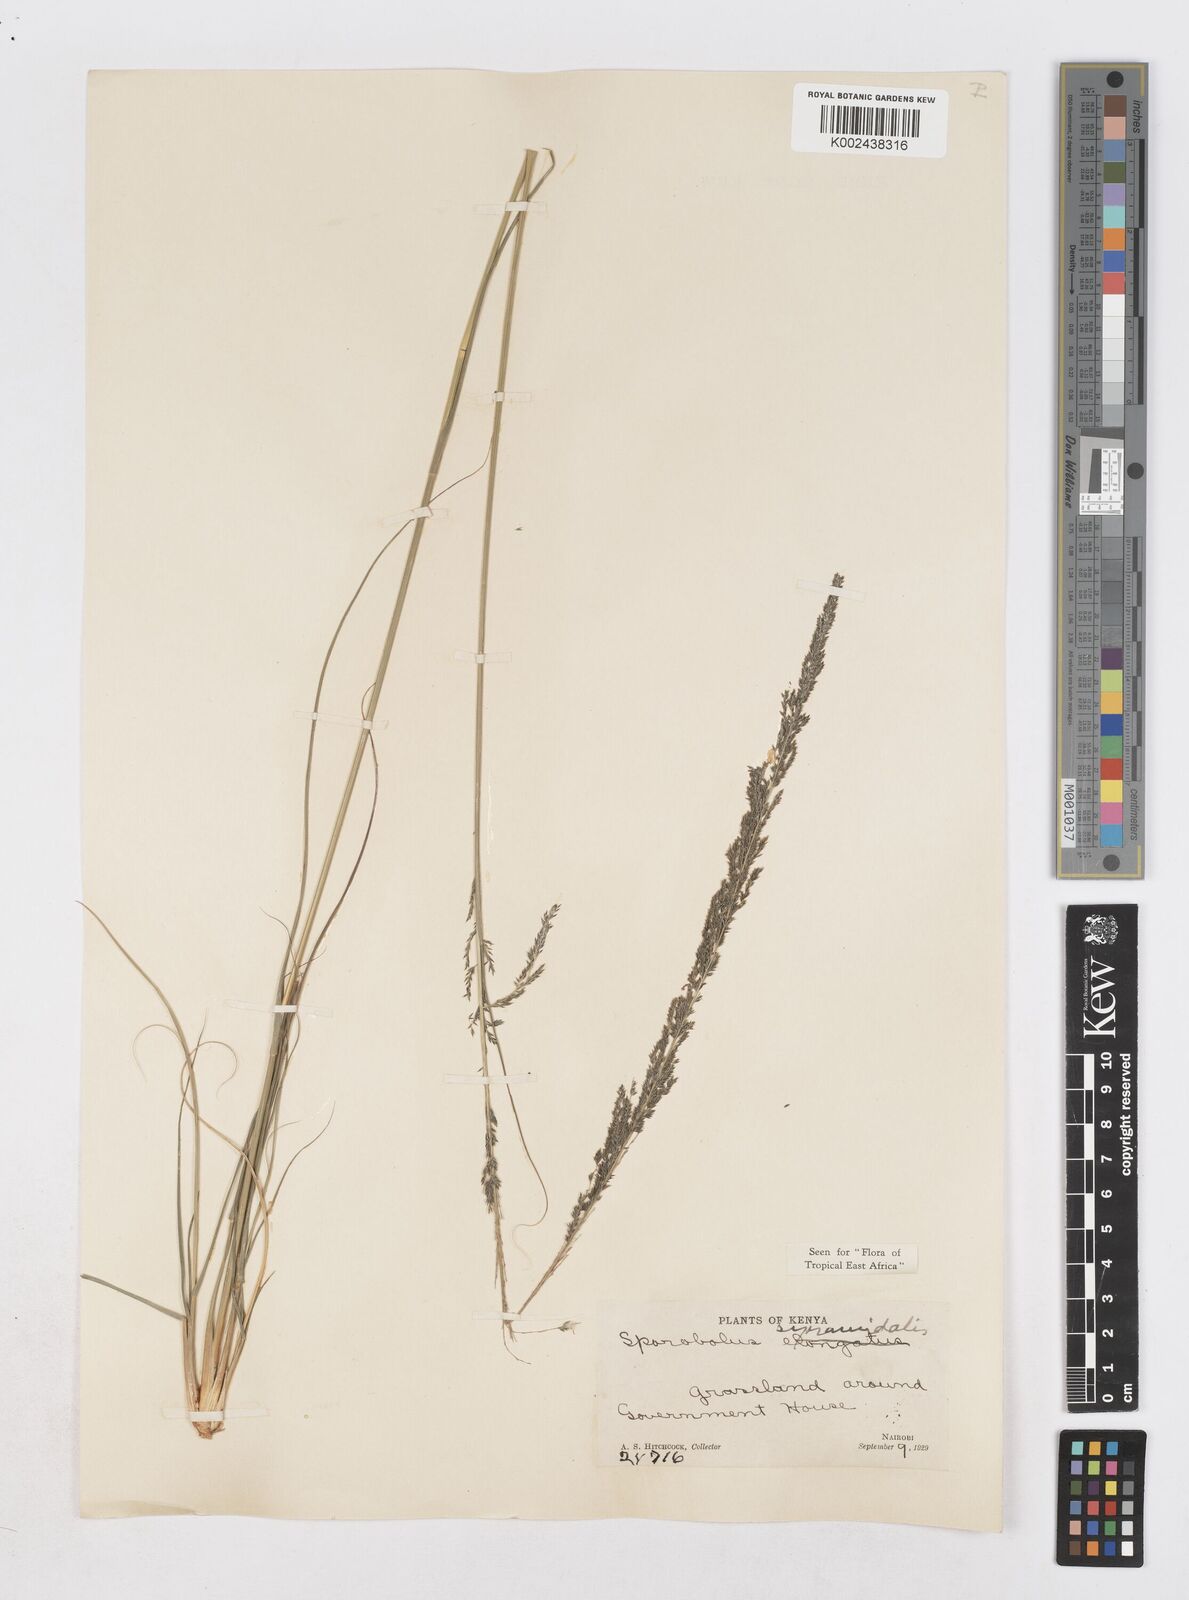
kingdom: Plantae
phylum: Tracheophyta
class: Liliopsida
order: Poales
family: Poaceae
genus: Sporobolus
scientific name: Sporobolus pyramidalis
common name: West indian dropseed
